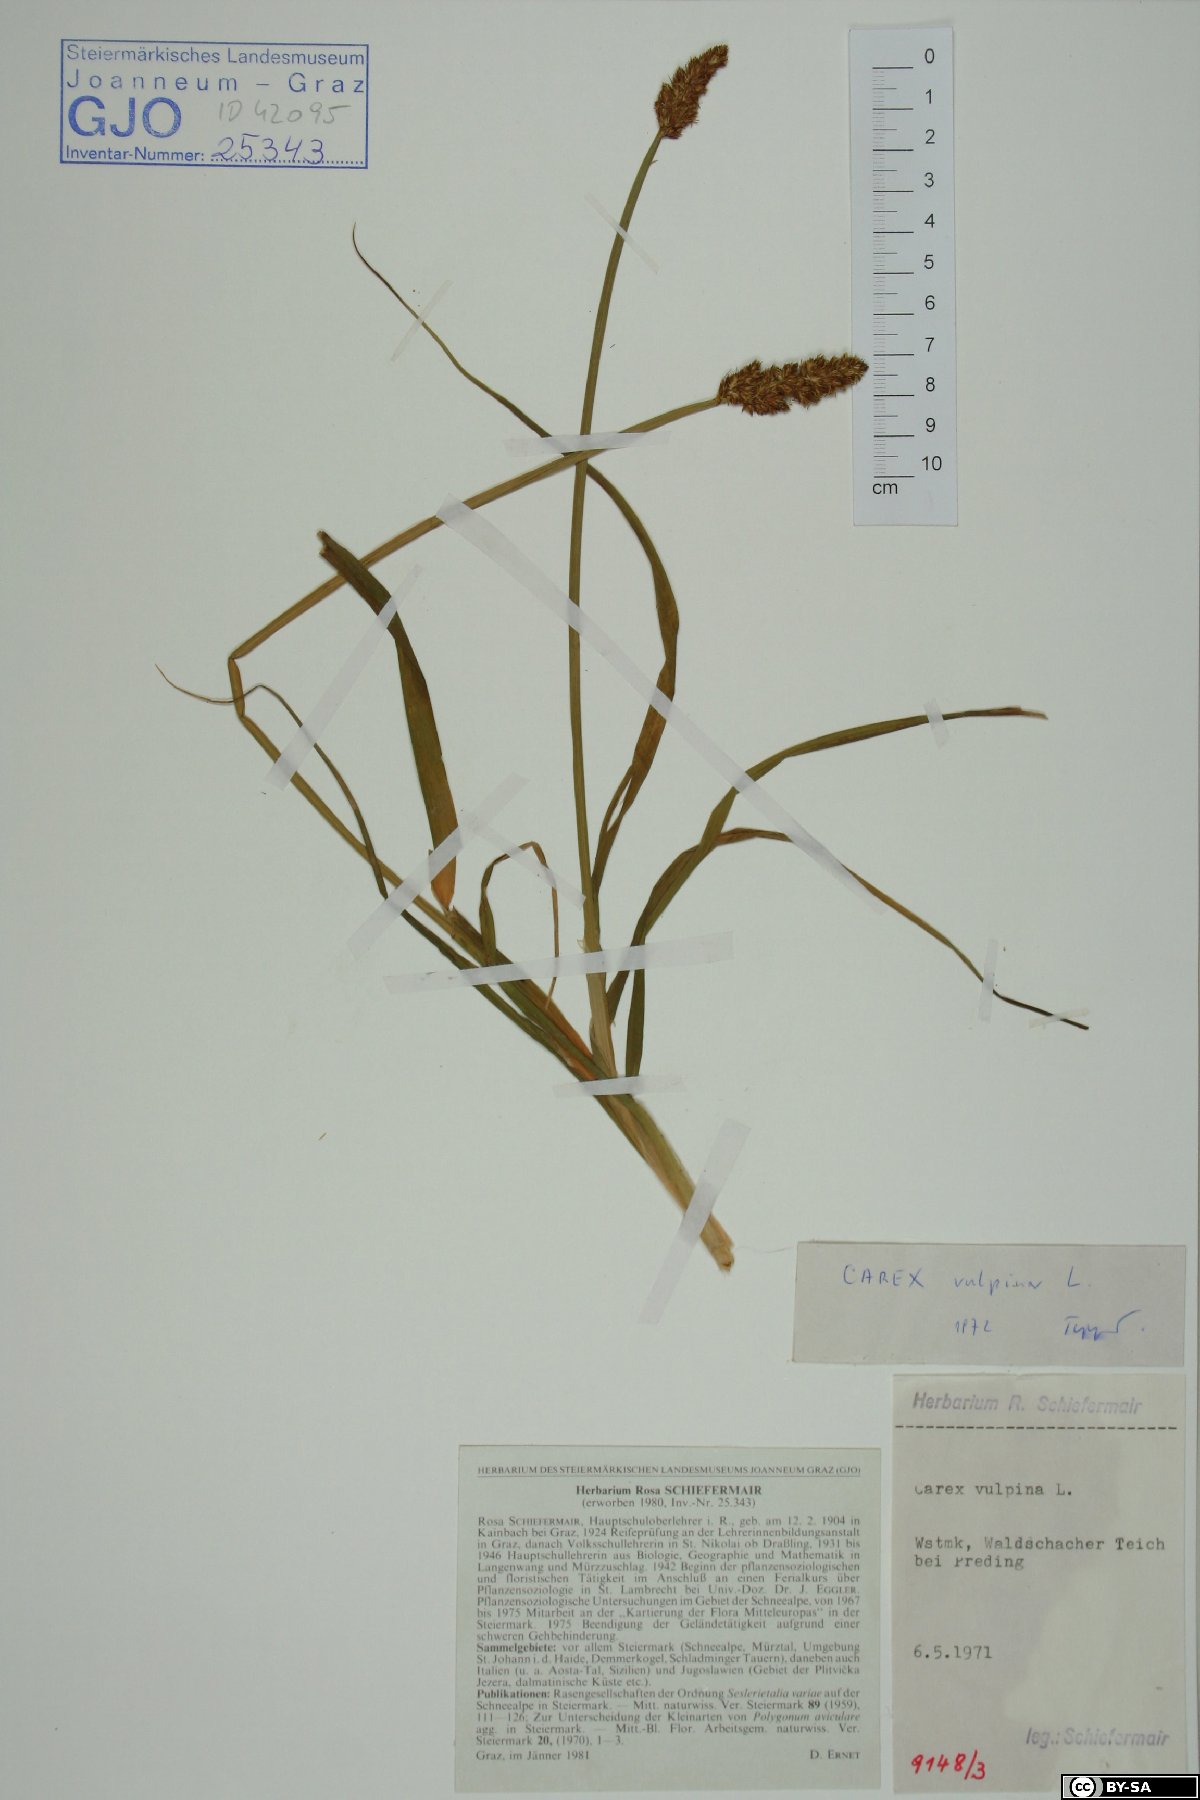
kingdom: Plantae
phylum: Tracheophyta
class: Liliopsida
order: Poales
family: Cyperaceae
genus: Carex
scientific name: Carex vulpina
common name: True fox-sedge
